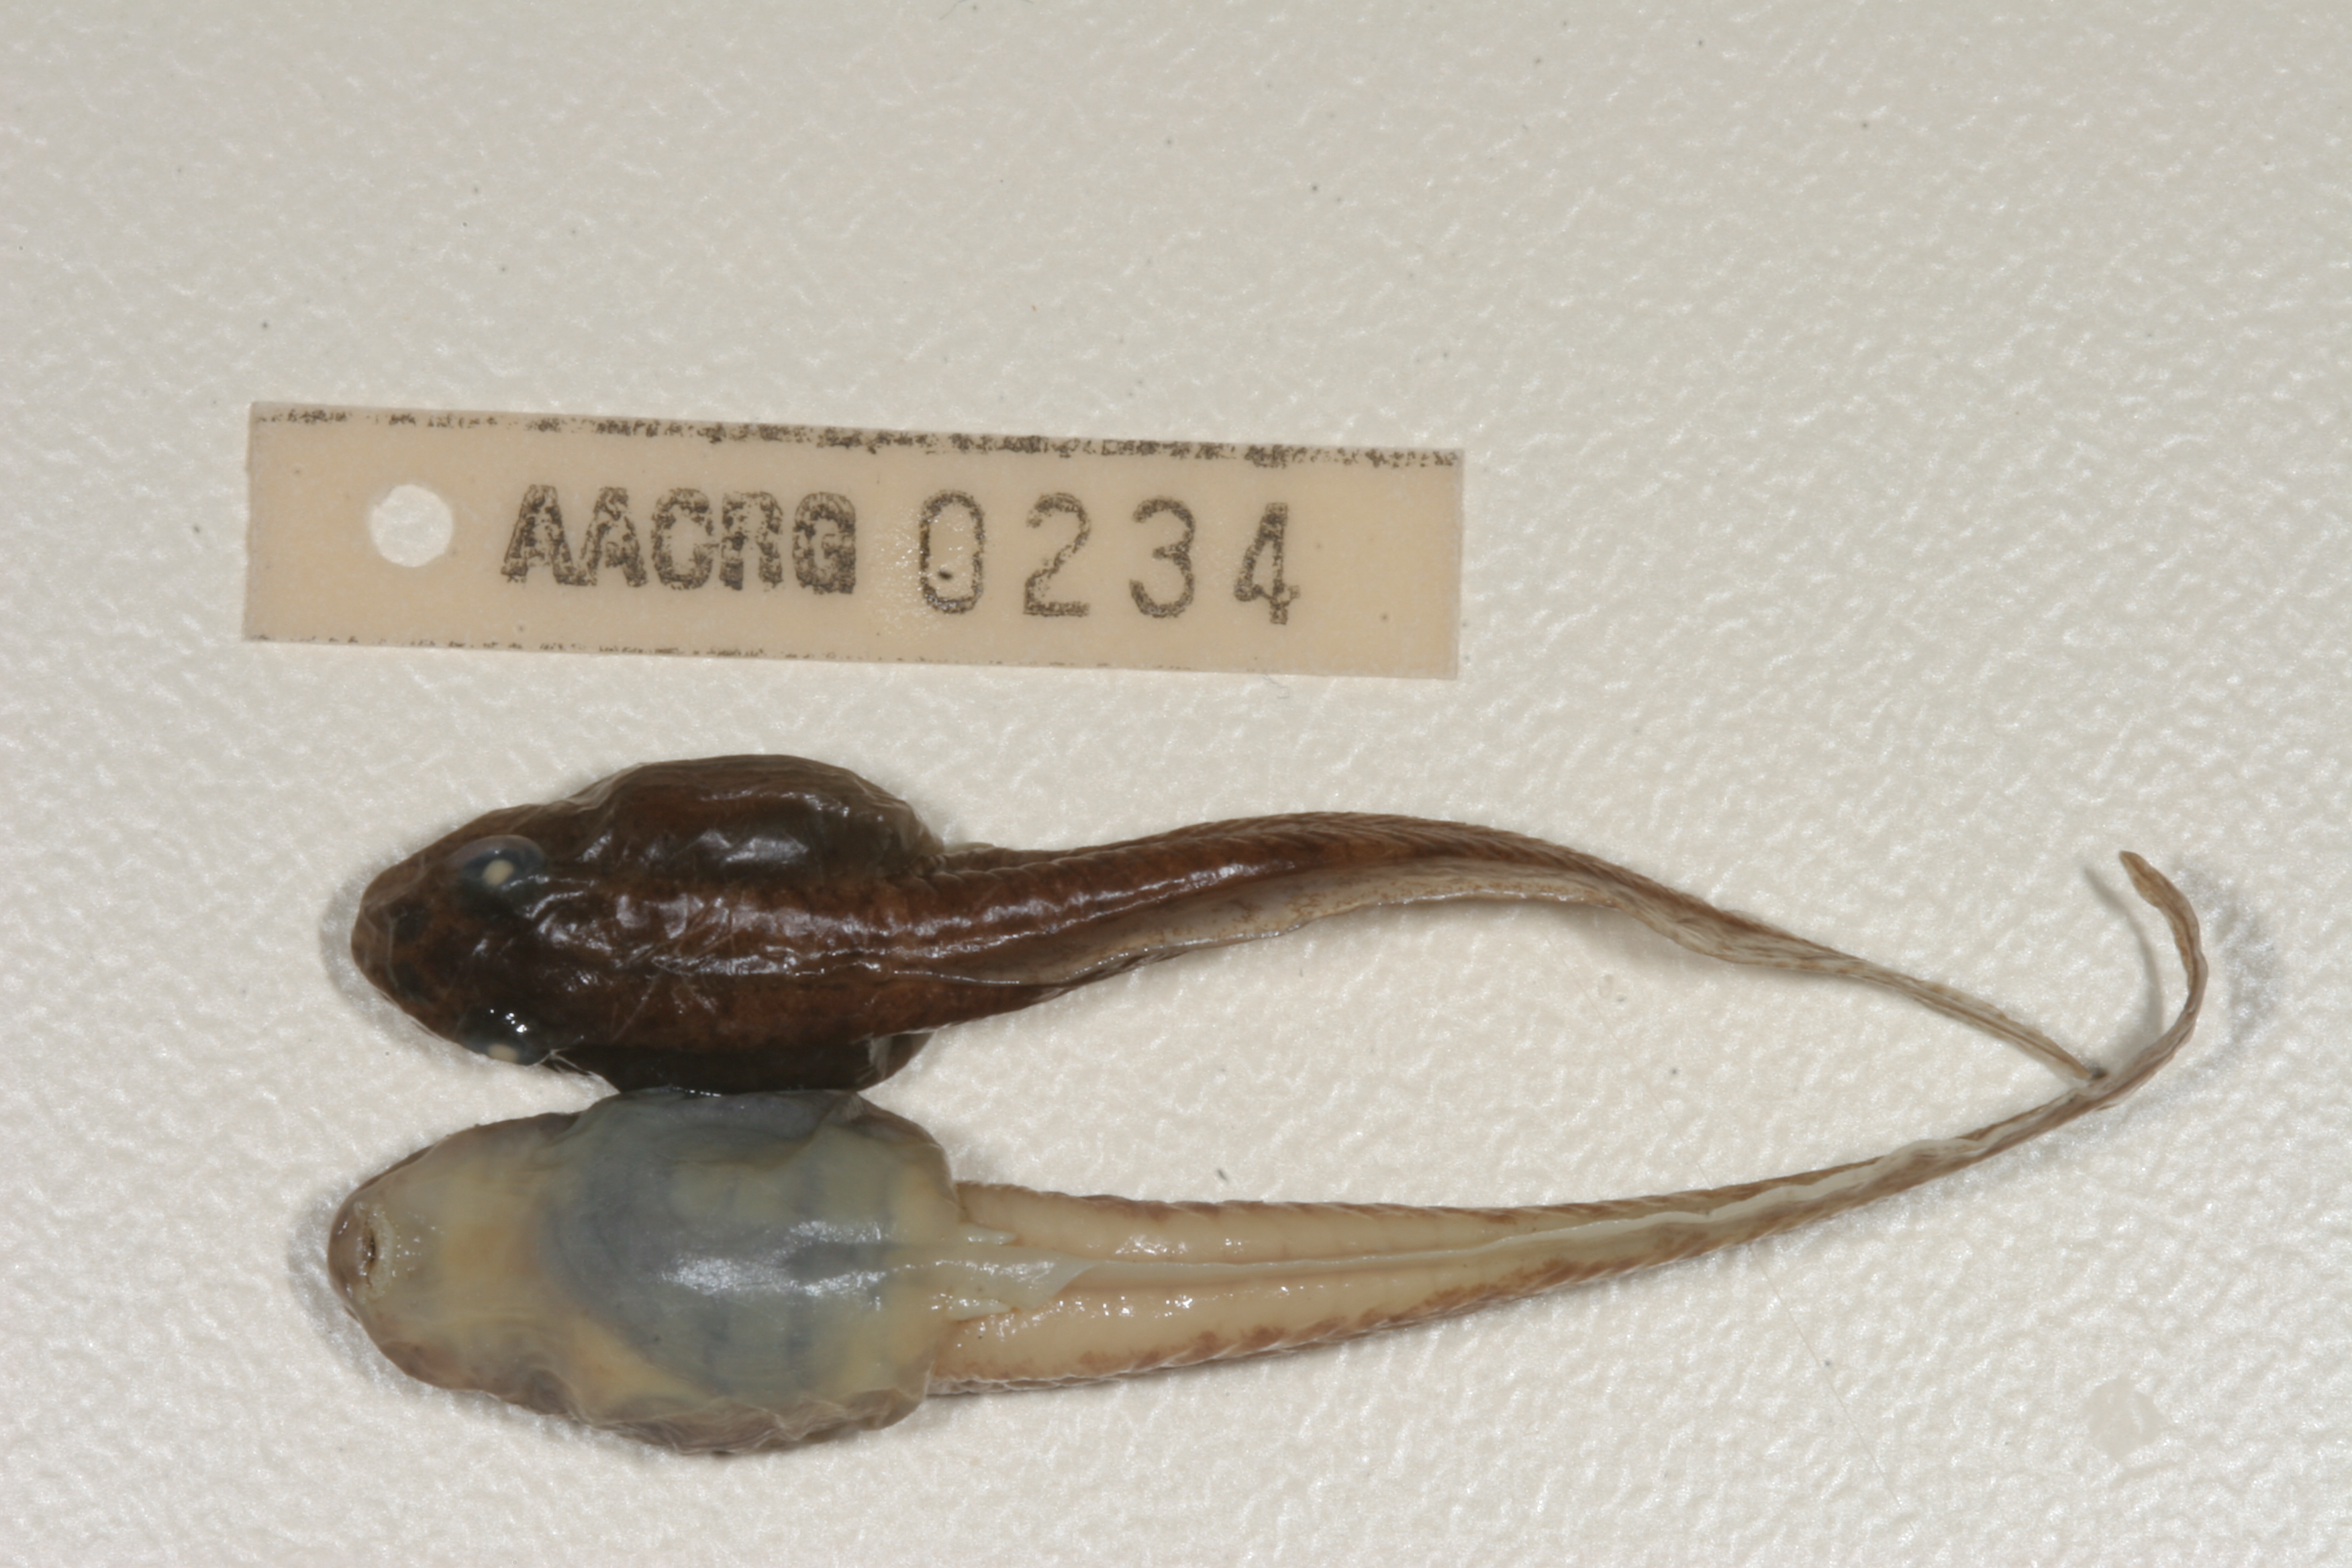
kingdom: Animalia
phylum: Chordata
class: Amphibia
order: Anura
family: Pyxicephalidae
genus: Amietia
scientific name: Amietia angolensis
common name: Dusky-throated frog
